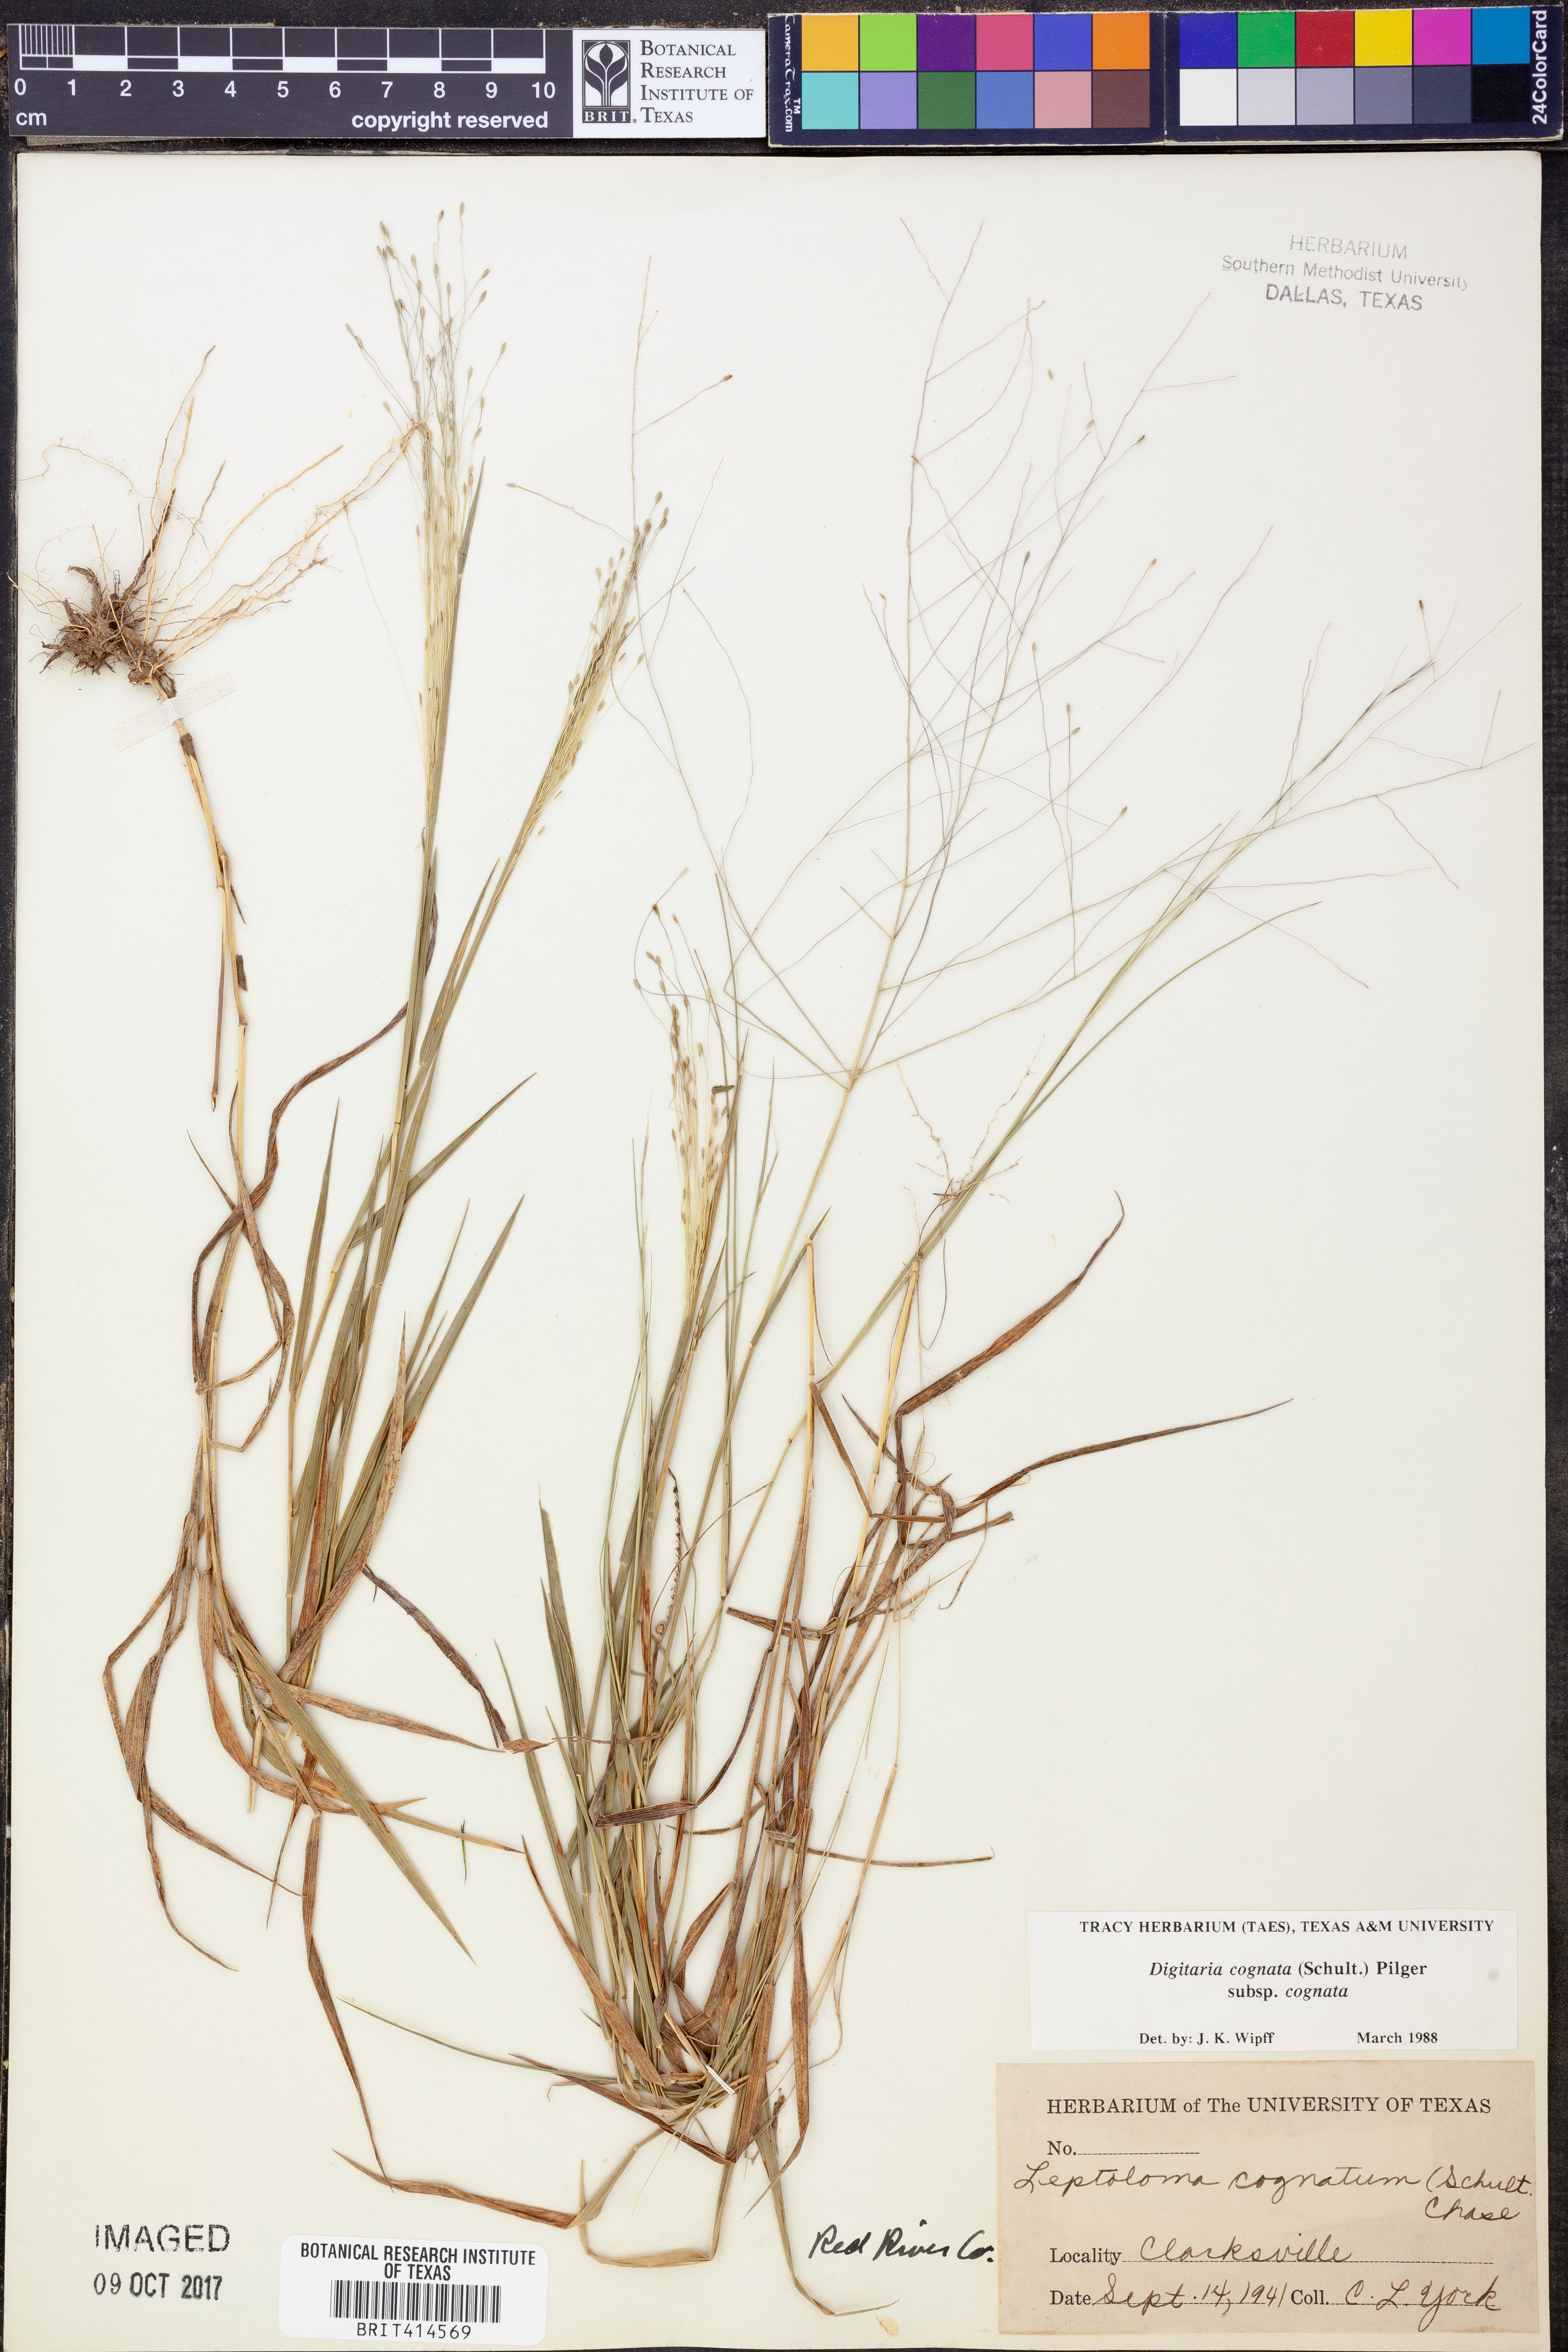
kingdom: Plantae
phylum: Tracheophyta
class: Liliopsida
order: Poales
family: Poaceae
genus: Digitaria
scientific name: Digitaria cognata
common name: Fall witchgrass
